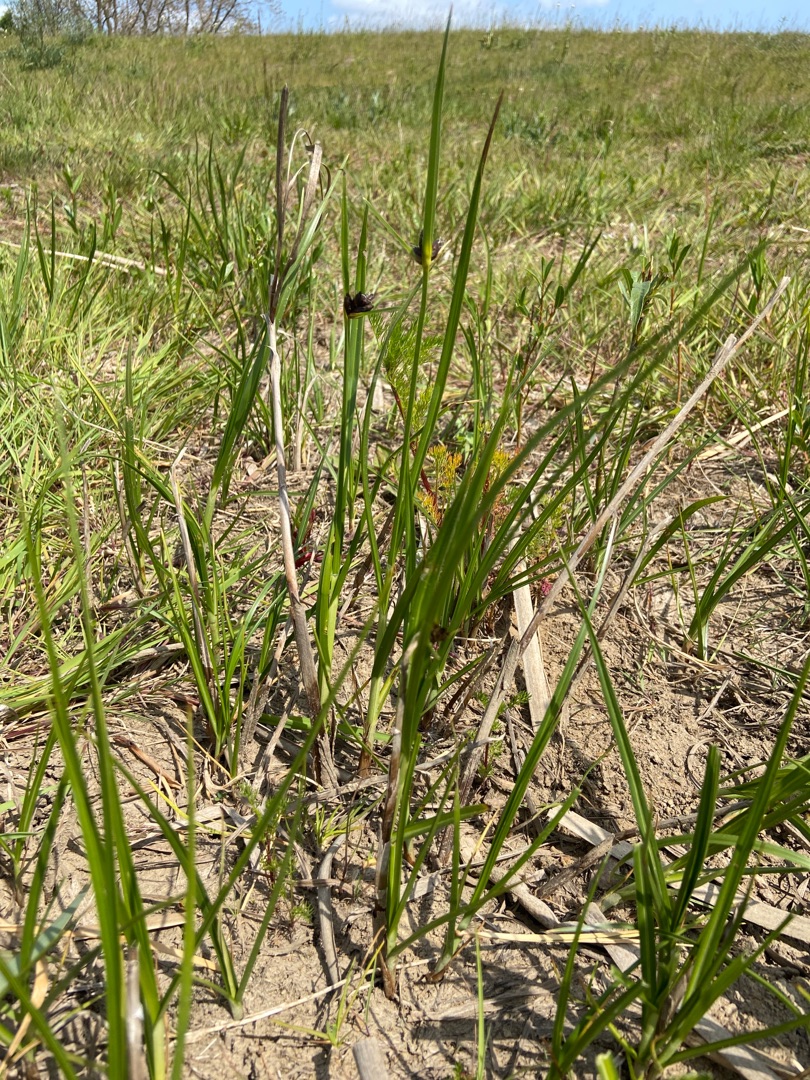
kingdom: Plantae
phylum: Tracheophyta
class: Liliopsida
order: Poales
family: Cyperaceae
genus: Bolboschoenus
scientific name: Bolboschoenus maritimus
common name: Strand-kogleaks
